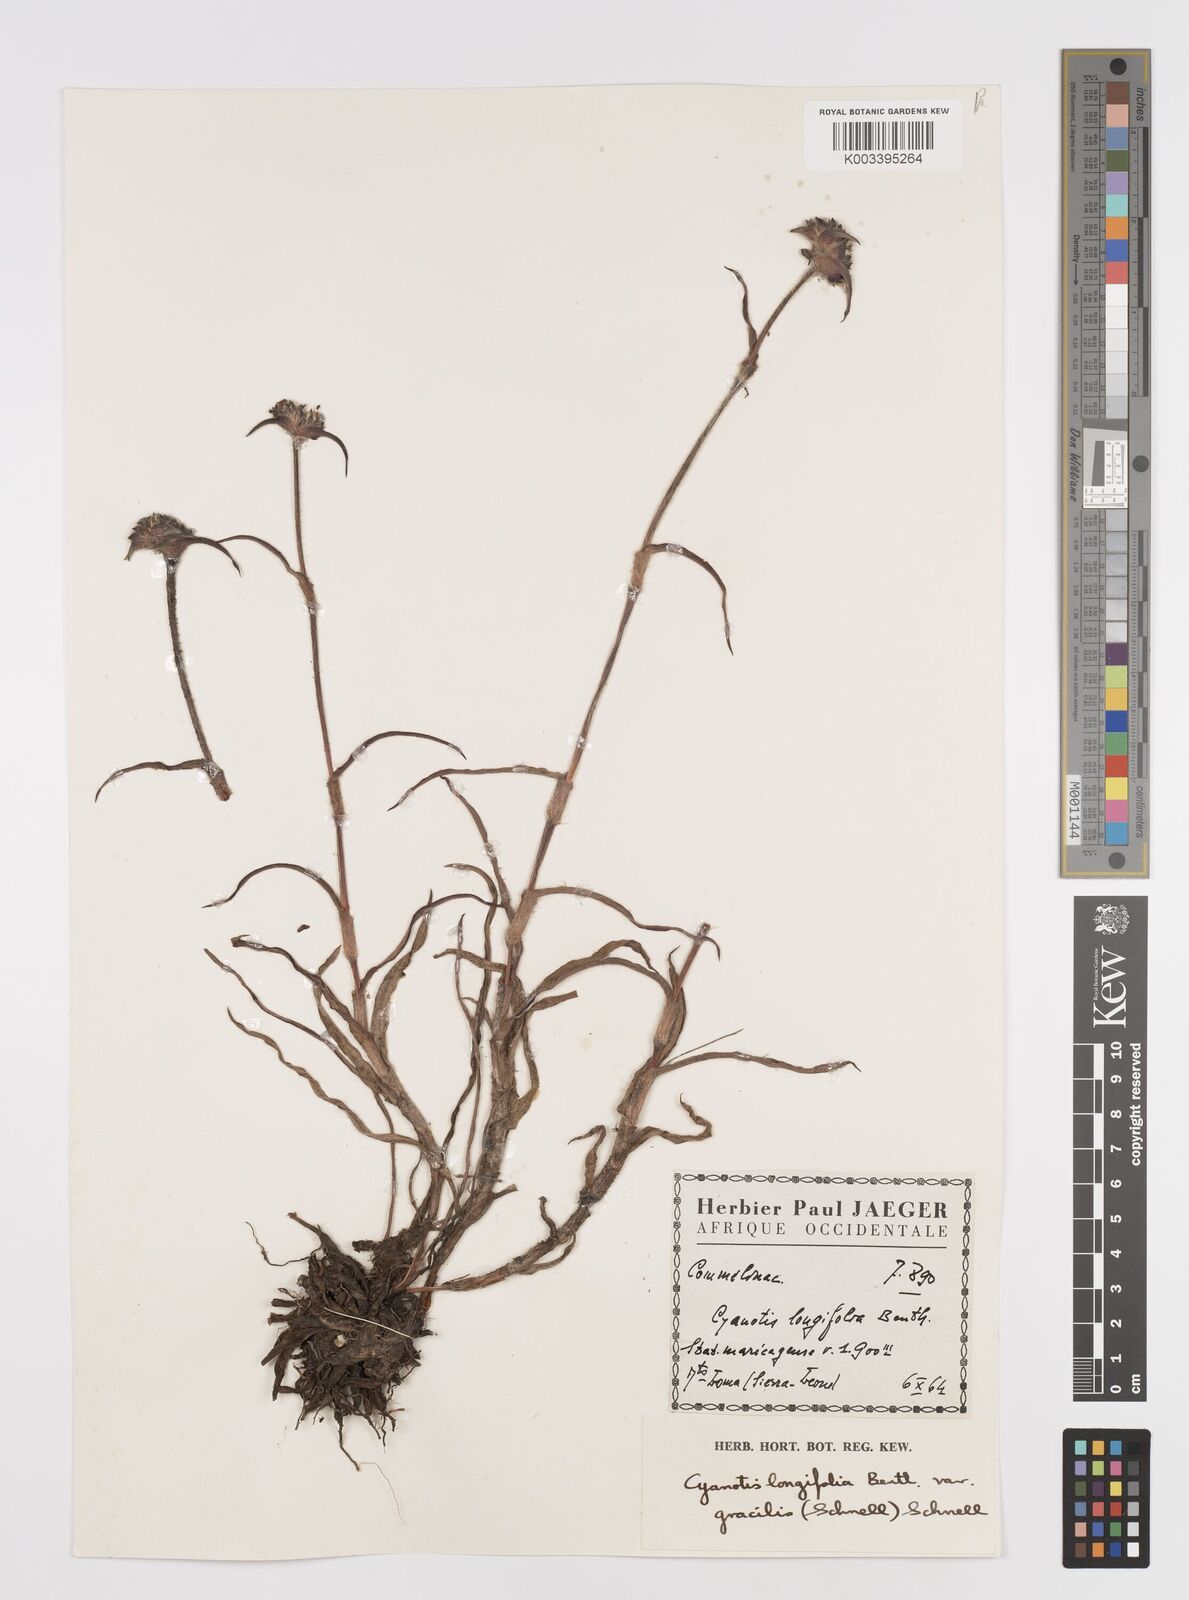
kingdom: Plantae
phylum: Tracheophyta
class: Liliopsida
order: Commelinales
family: Commelinaceae
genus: Cyanotis
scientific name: Cyanotis longifolia
